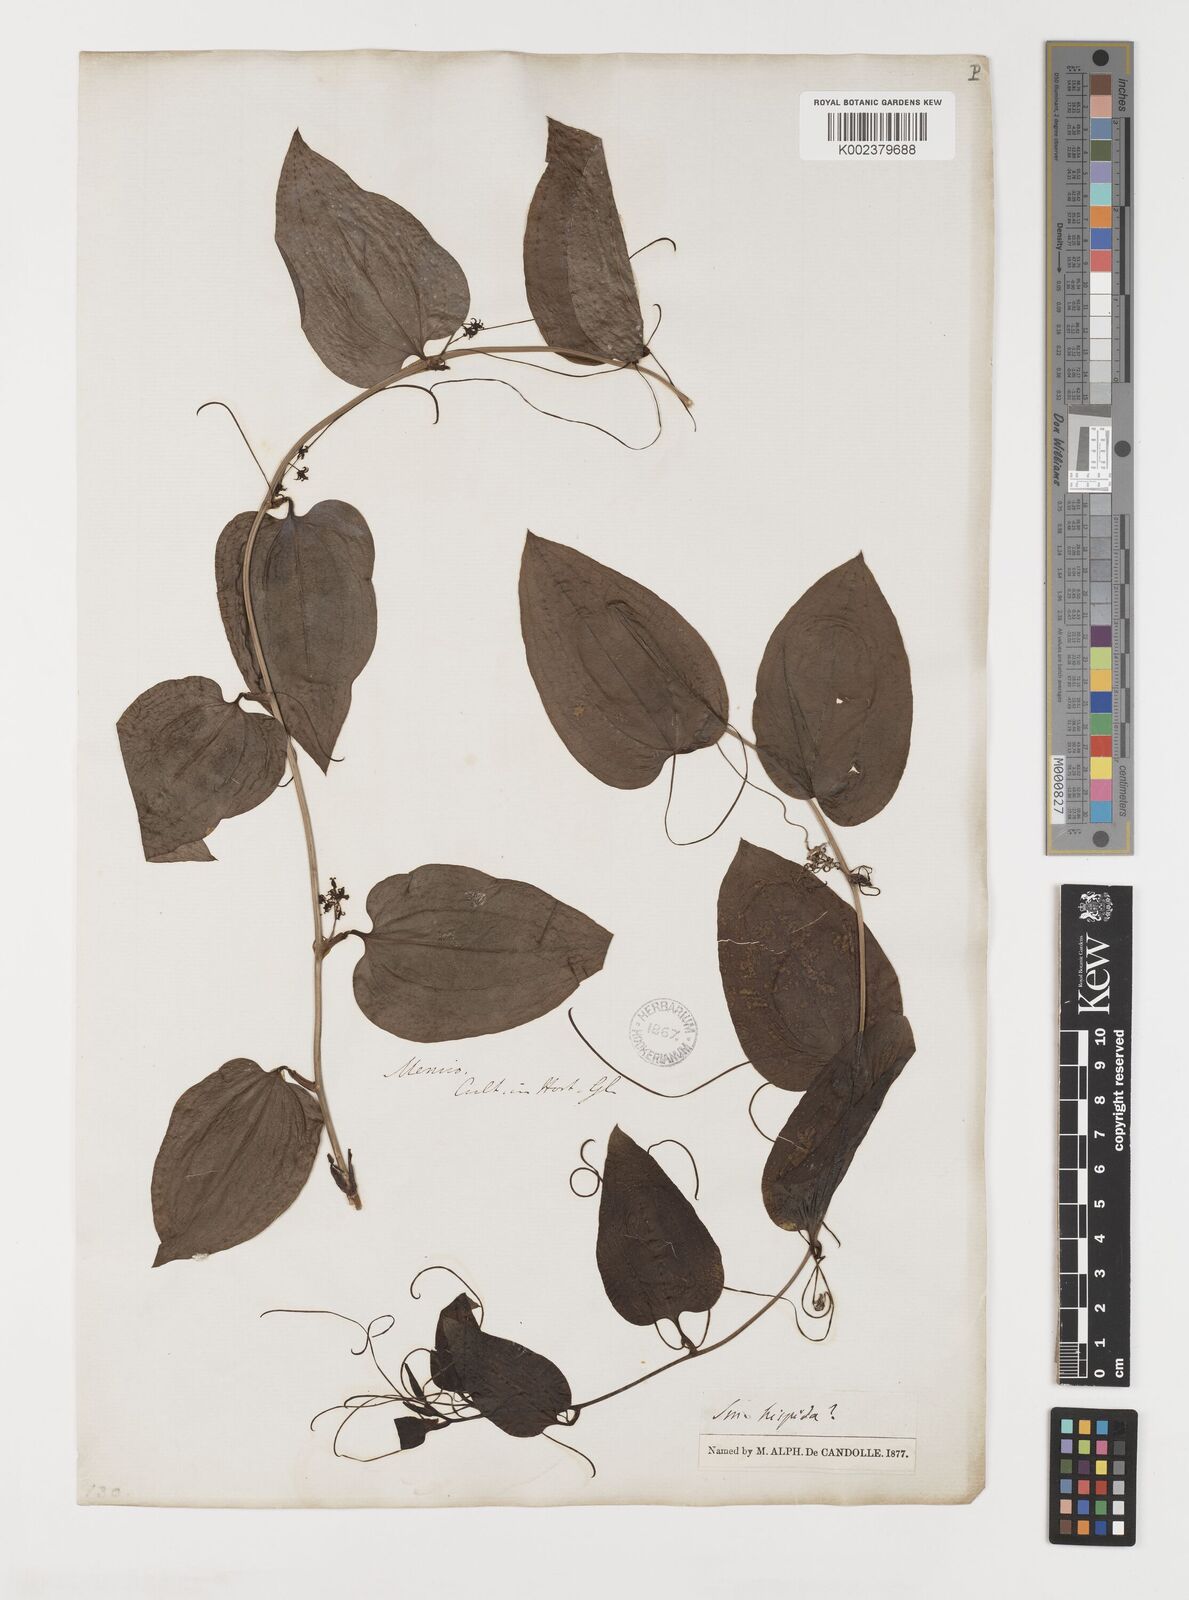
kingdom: Plantae
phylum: Tracheophyta
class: Liliopsida
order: Liliales
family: Smilacaceae
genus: Smilax
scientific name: Smilax hispida
